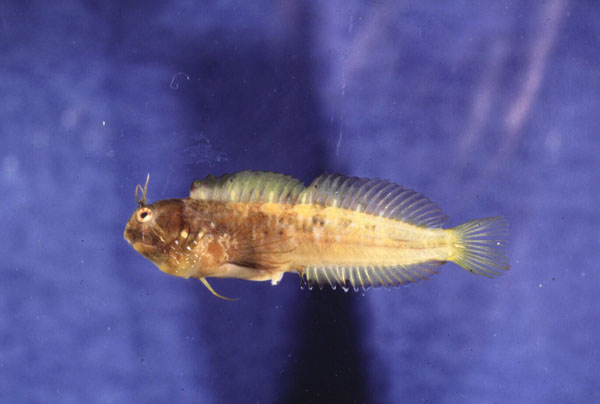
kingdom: Animalia
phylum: Chordata
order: Perciformes
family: Blenniidae
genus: Parablennius
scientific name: Parablennius incognitus
